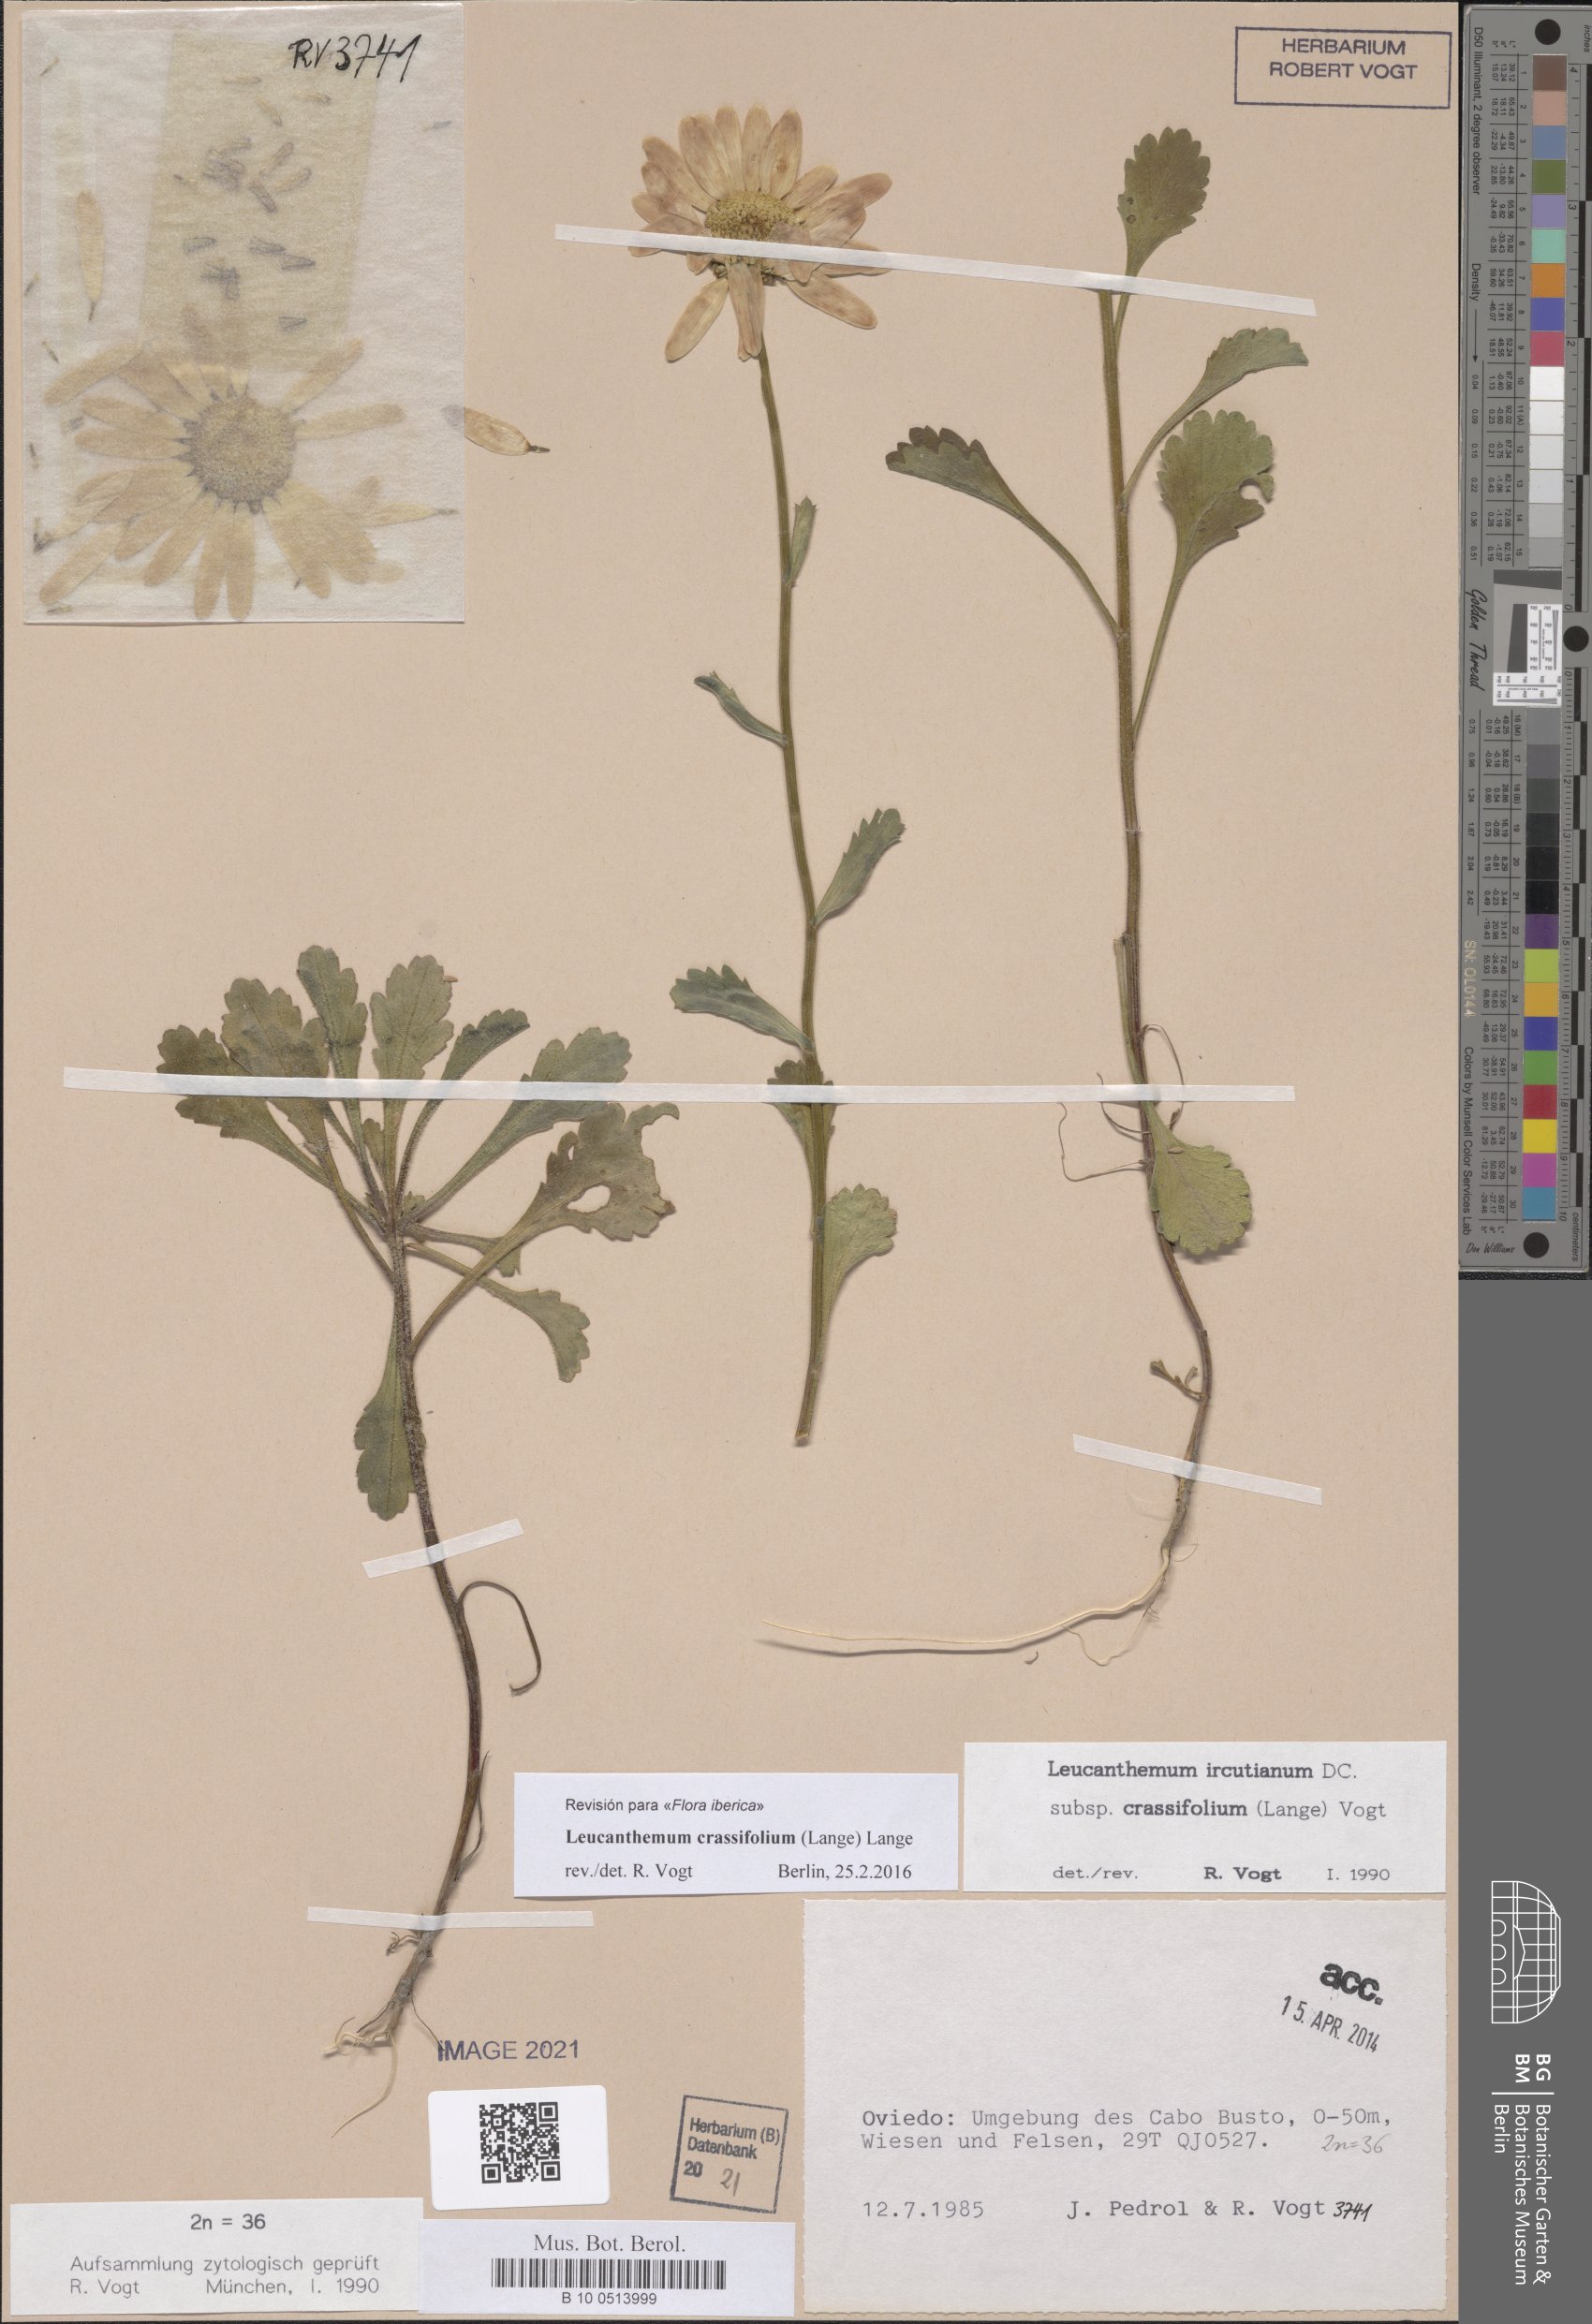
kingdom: Plantae
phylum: Tracheophyta
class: Magnoliopsida
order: Asterales
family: Asteraceae
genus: Leucanthemum
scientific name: Leucanthemum crassifolium
